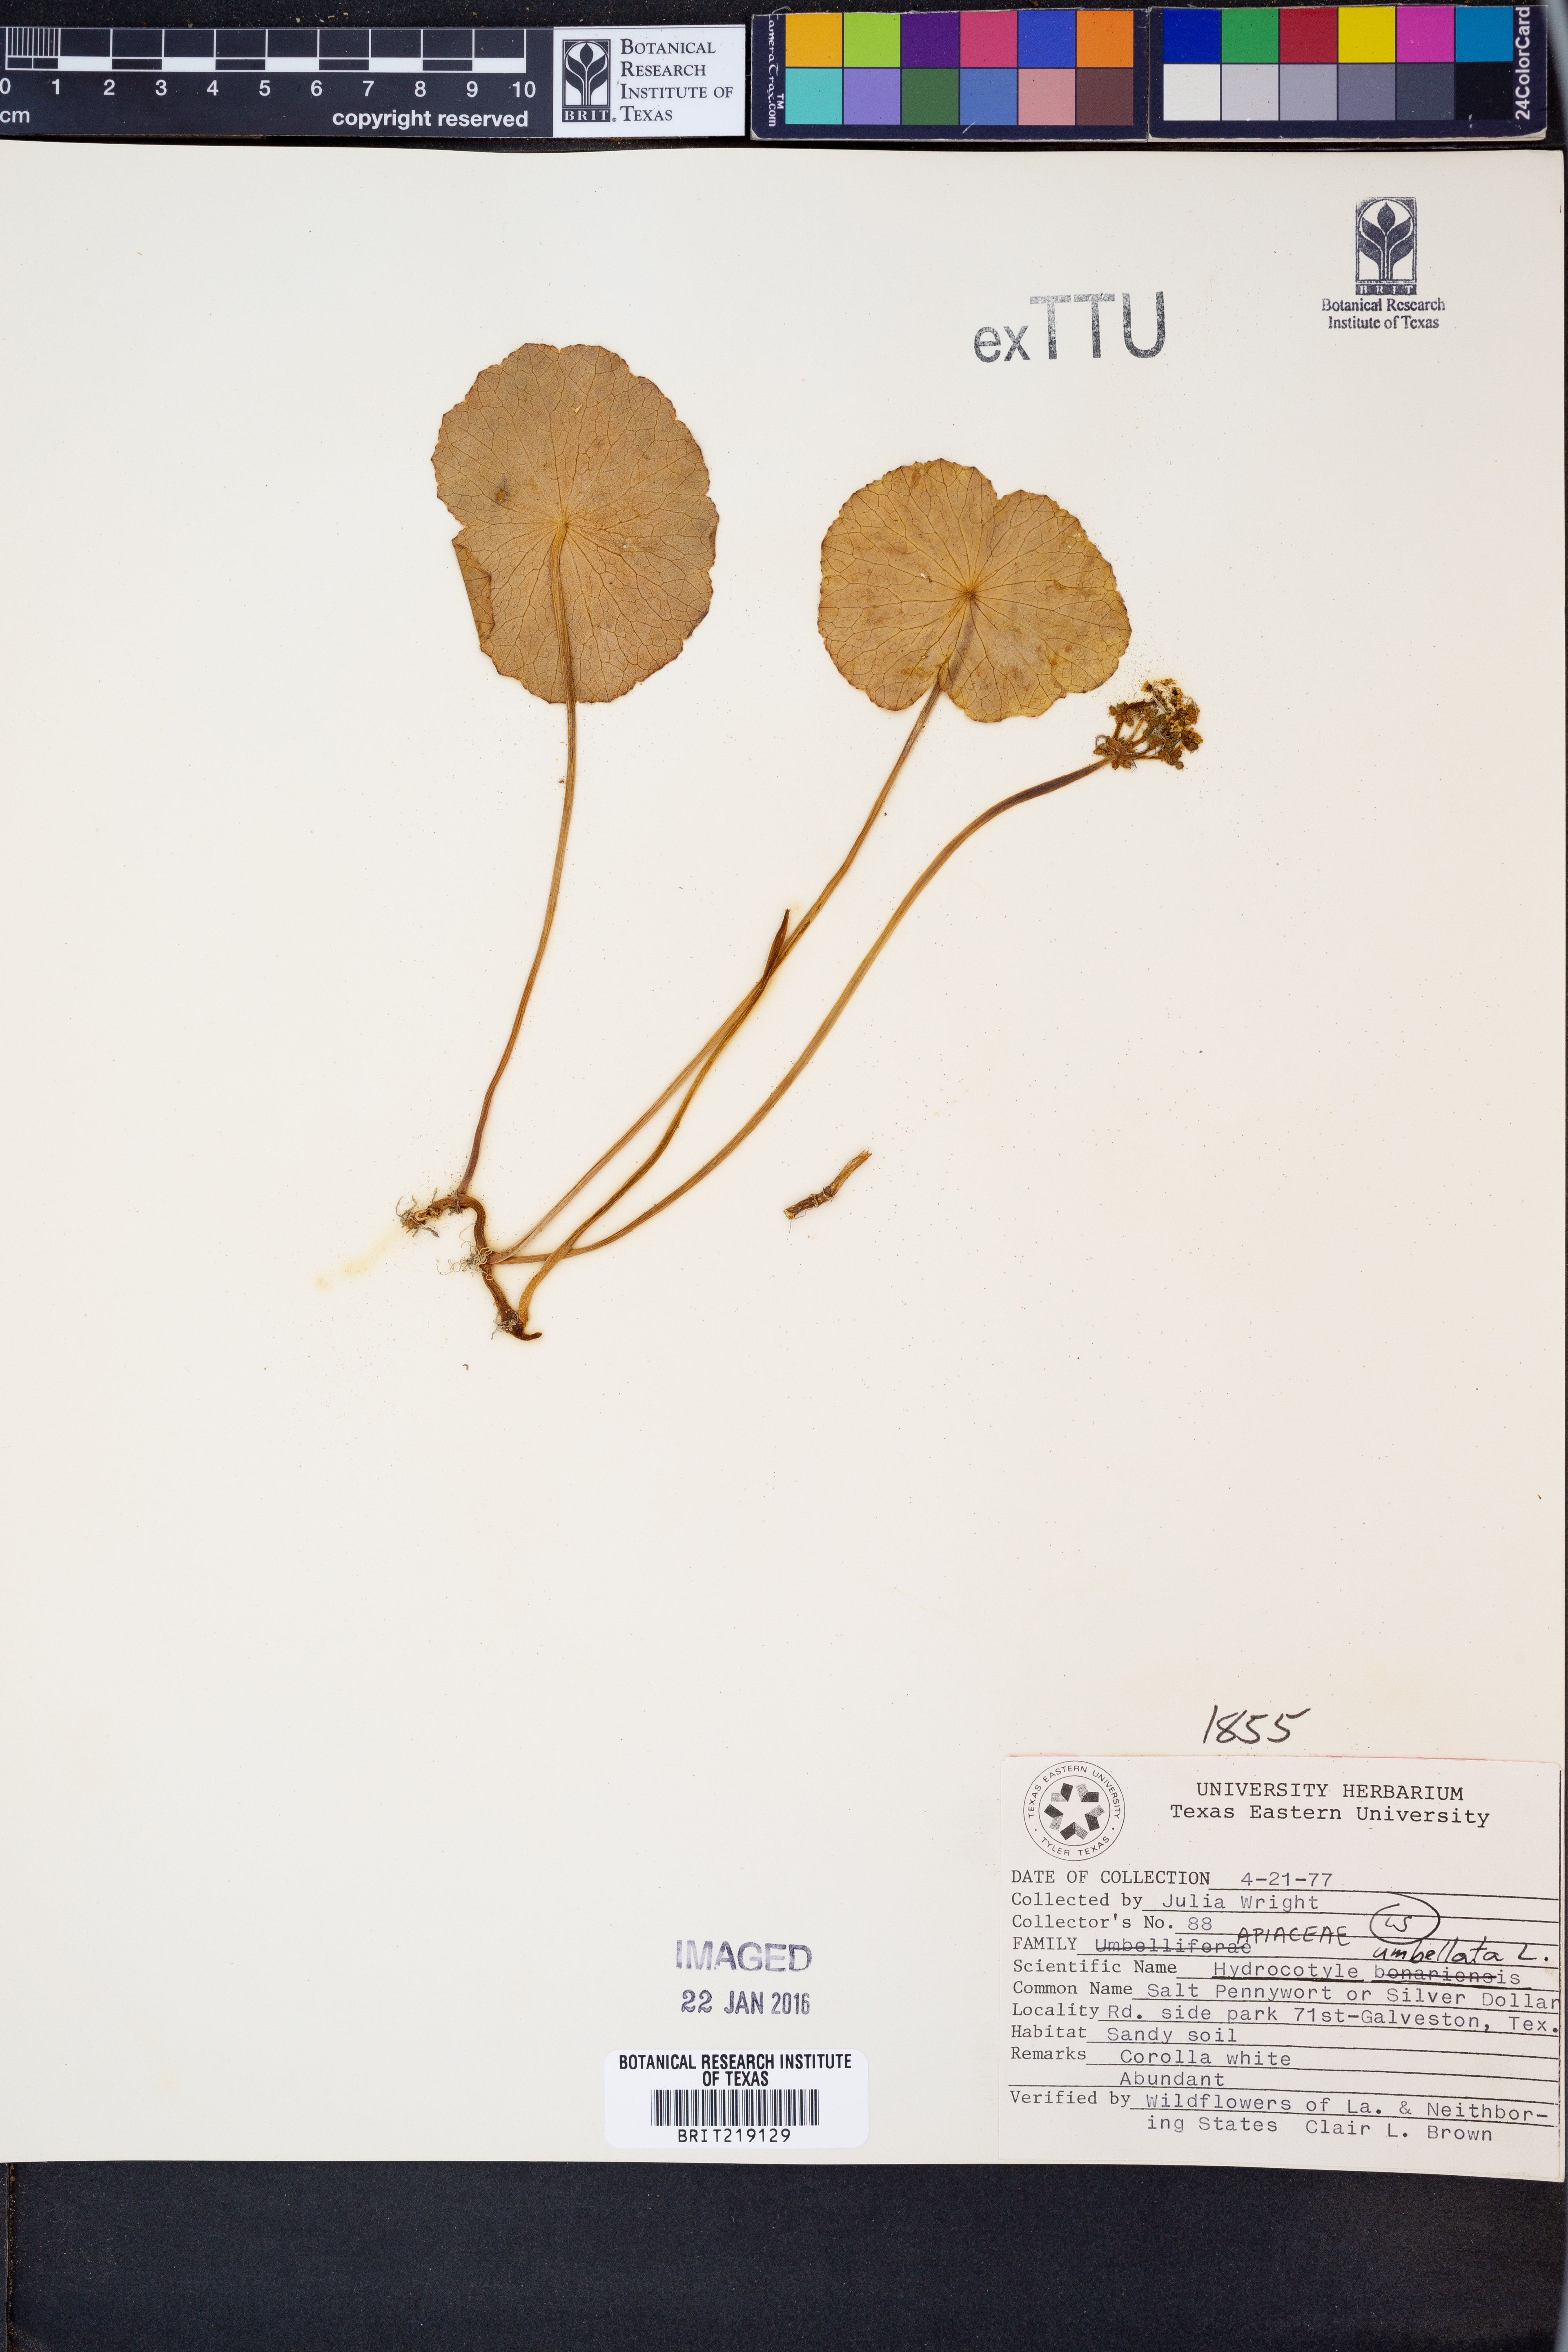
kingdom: Plantae
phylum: Tracheophyta
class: Magnoliopsida
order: Apiales
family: Araliaceae
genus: Hydrocotyle
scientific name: Hydrocotyle umbellata
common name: Water pennywort
